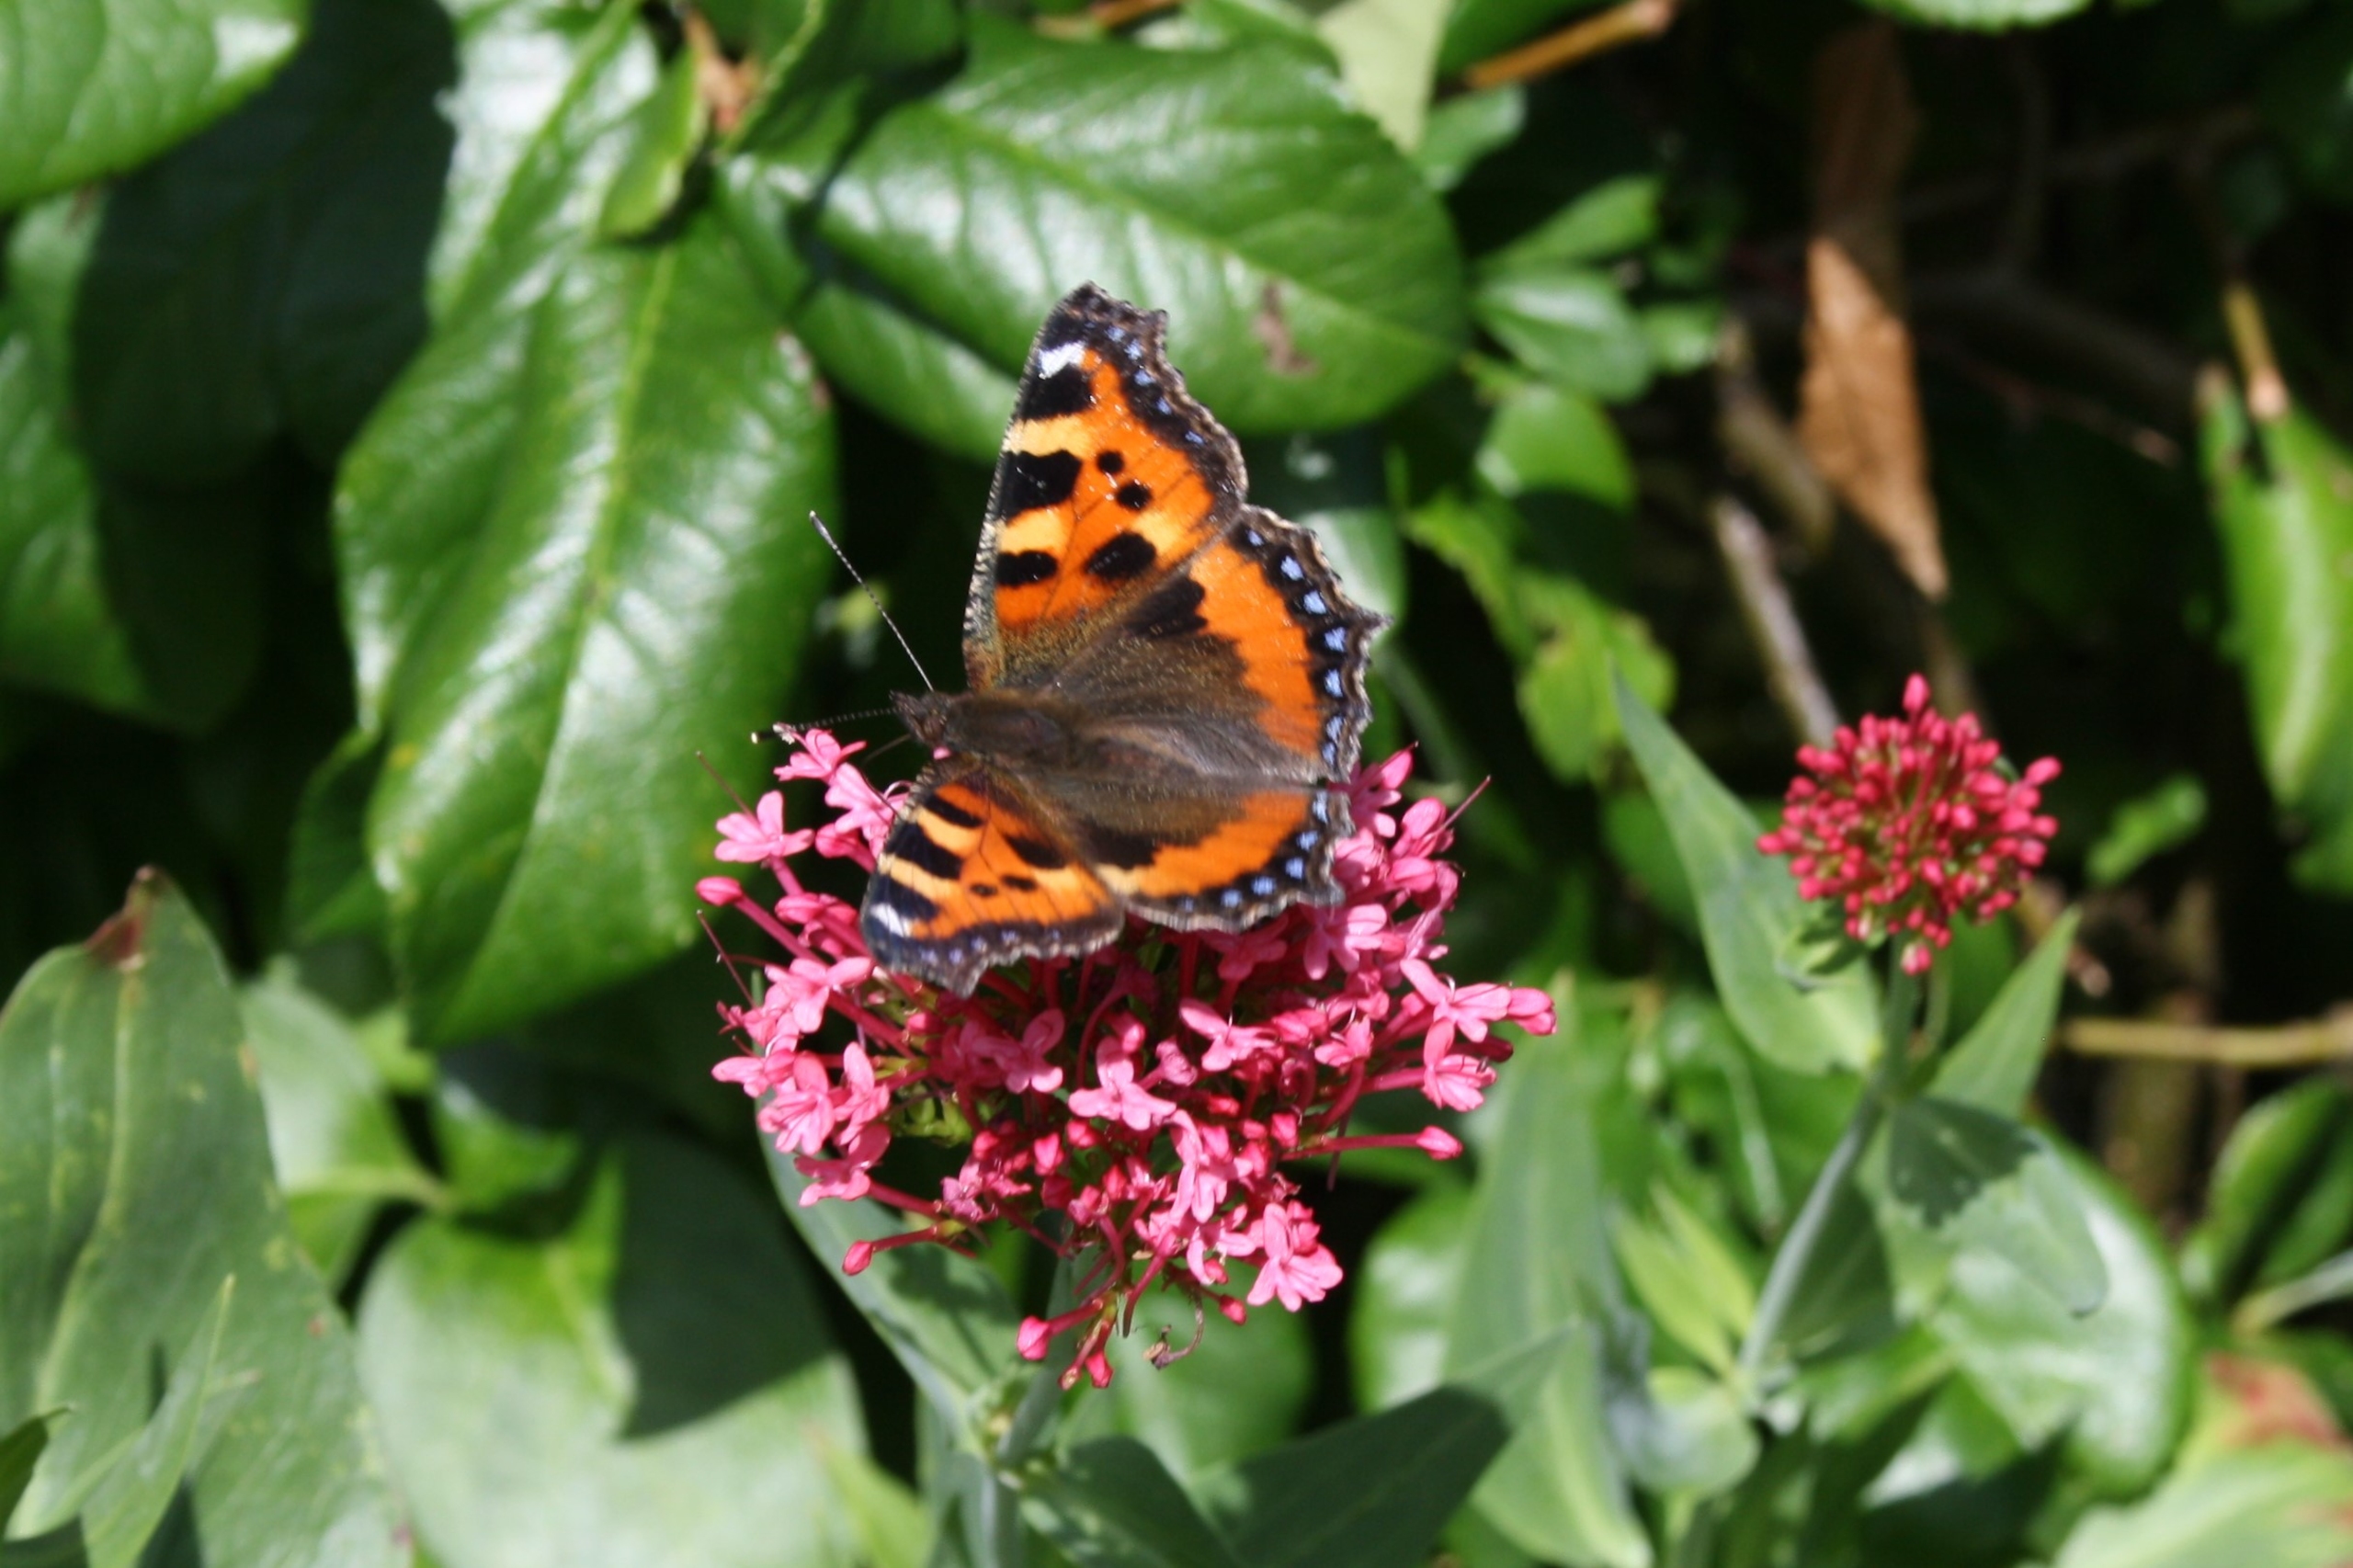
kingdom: Animalia
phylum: Arthropoda
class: Insecta
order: Lepidoptera
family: Nymphalidae
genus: Aglais
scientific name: Aglais urticae
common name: Nældens takvinge
